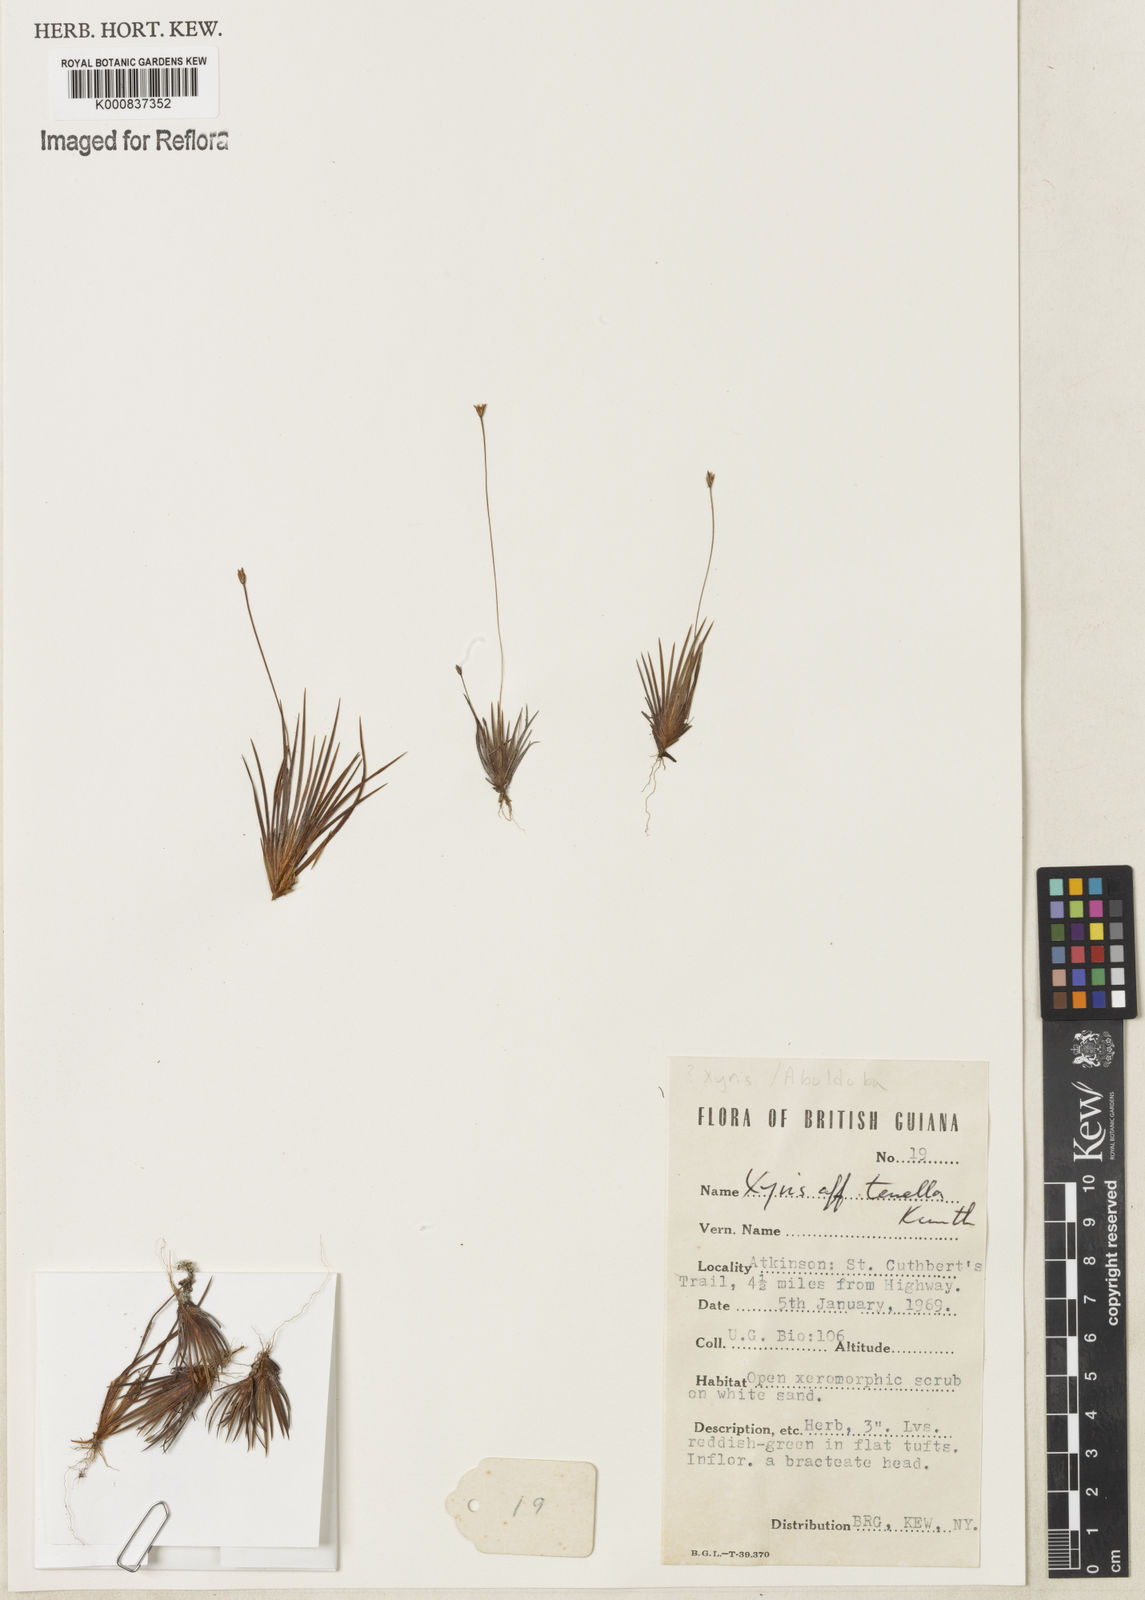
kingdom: Plantae
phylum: Tracheophyta
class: Liliopsida
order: Poales
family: Xyridaceae
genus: Xyris
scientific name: Xyris tenella
